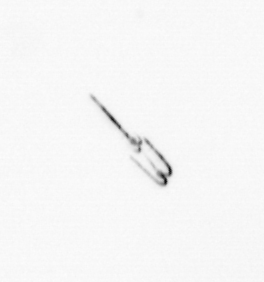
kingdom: Chromista
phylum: Myzozoa
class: Dinophyceae
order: Gonyaulacales
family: Ceratiaceae
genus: Ceratium
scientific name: Ceratium
